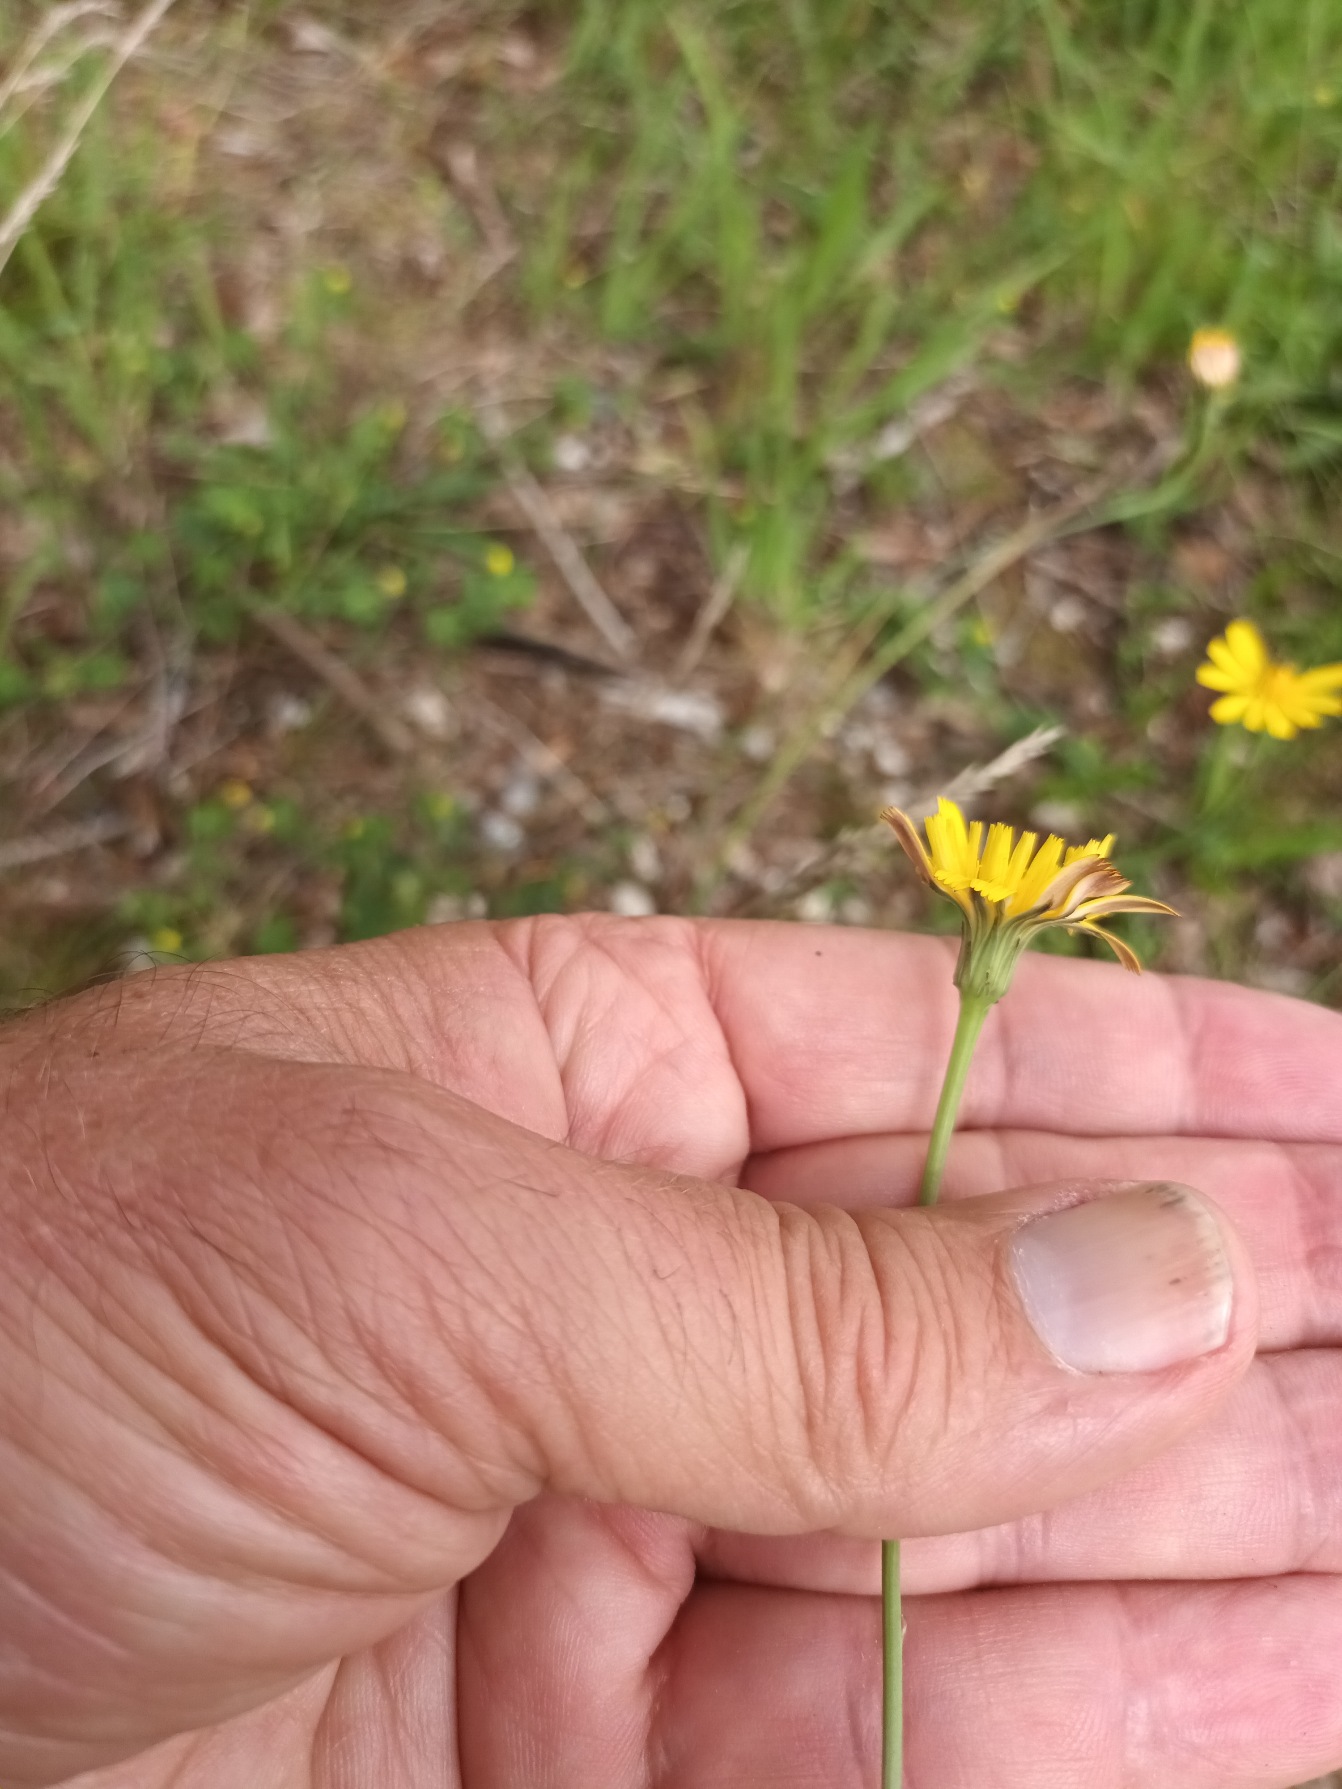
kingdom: Plantae
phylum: Tracheophyta
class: Magnoliopsida
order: Asterales
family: Asteraceae
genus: Hypochaeris
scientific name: Hypochaeris radicata
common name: Almindelig kongepen
